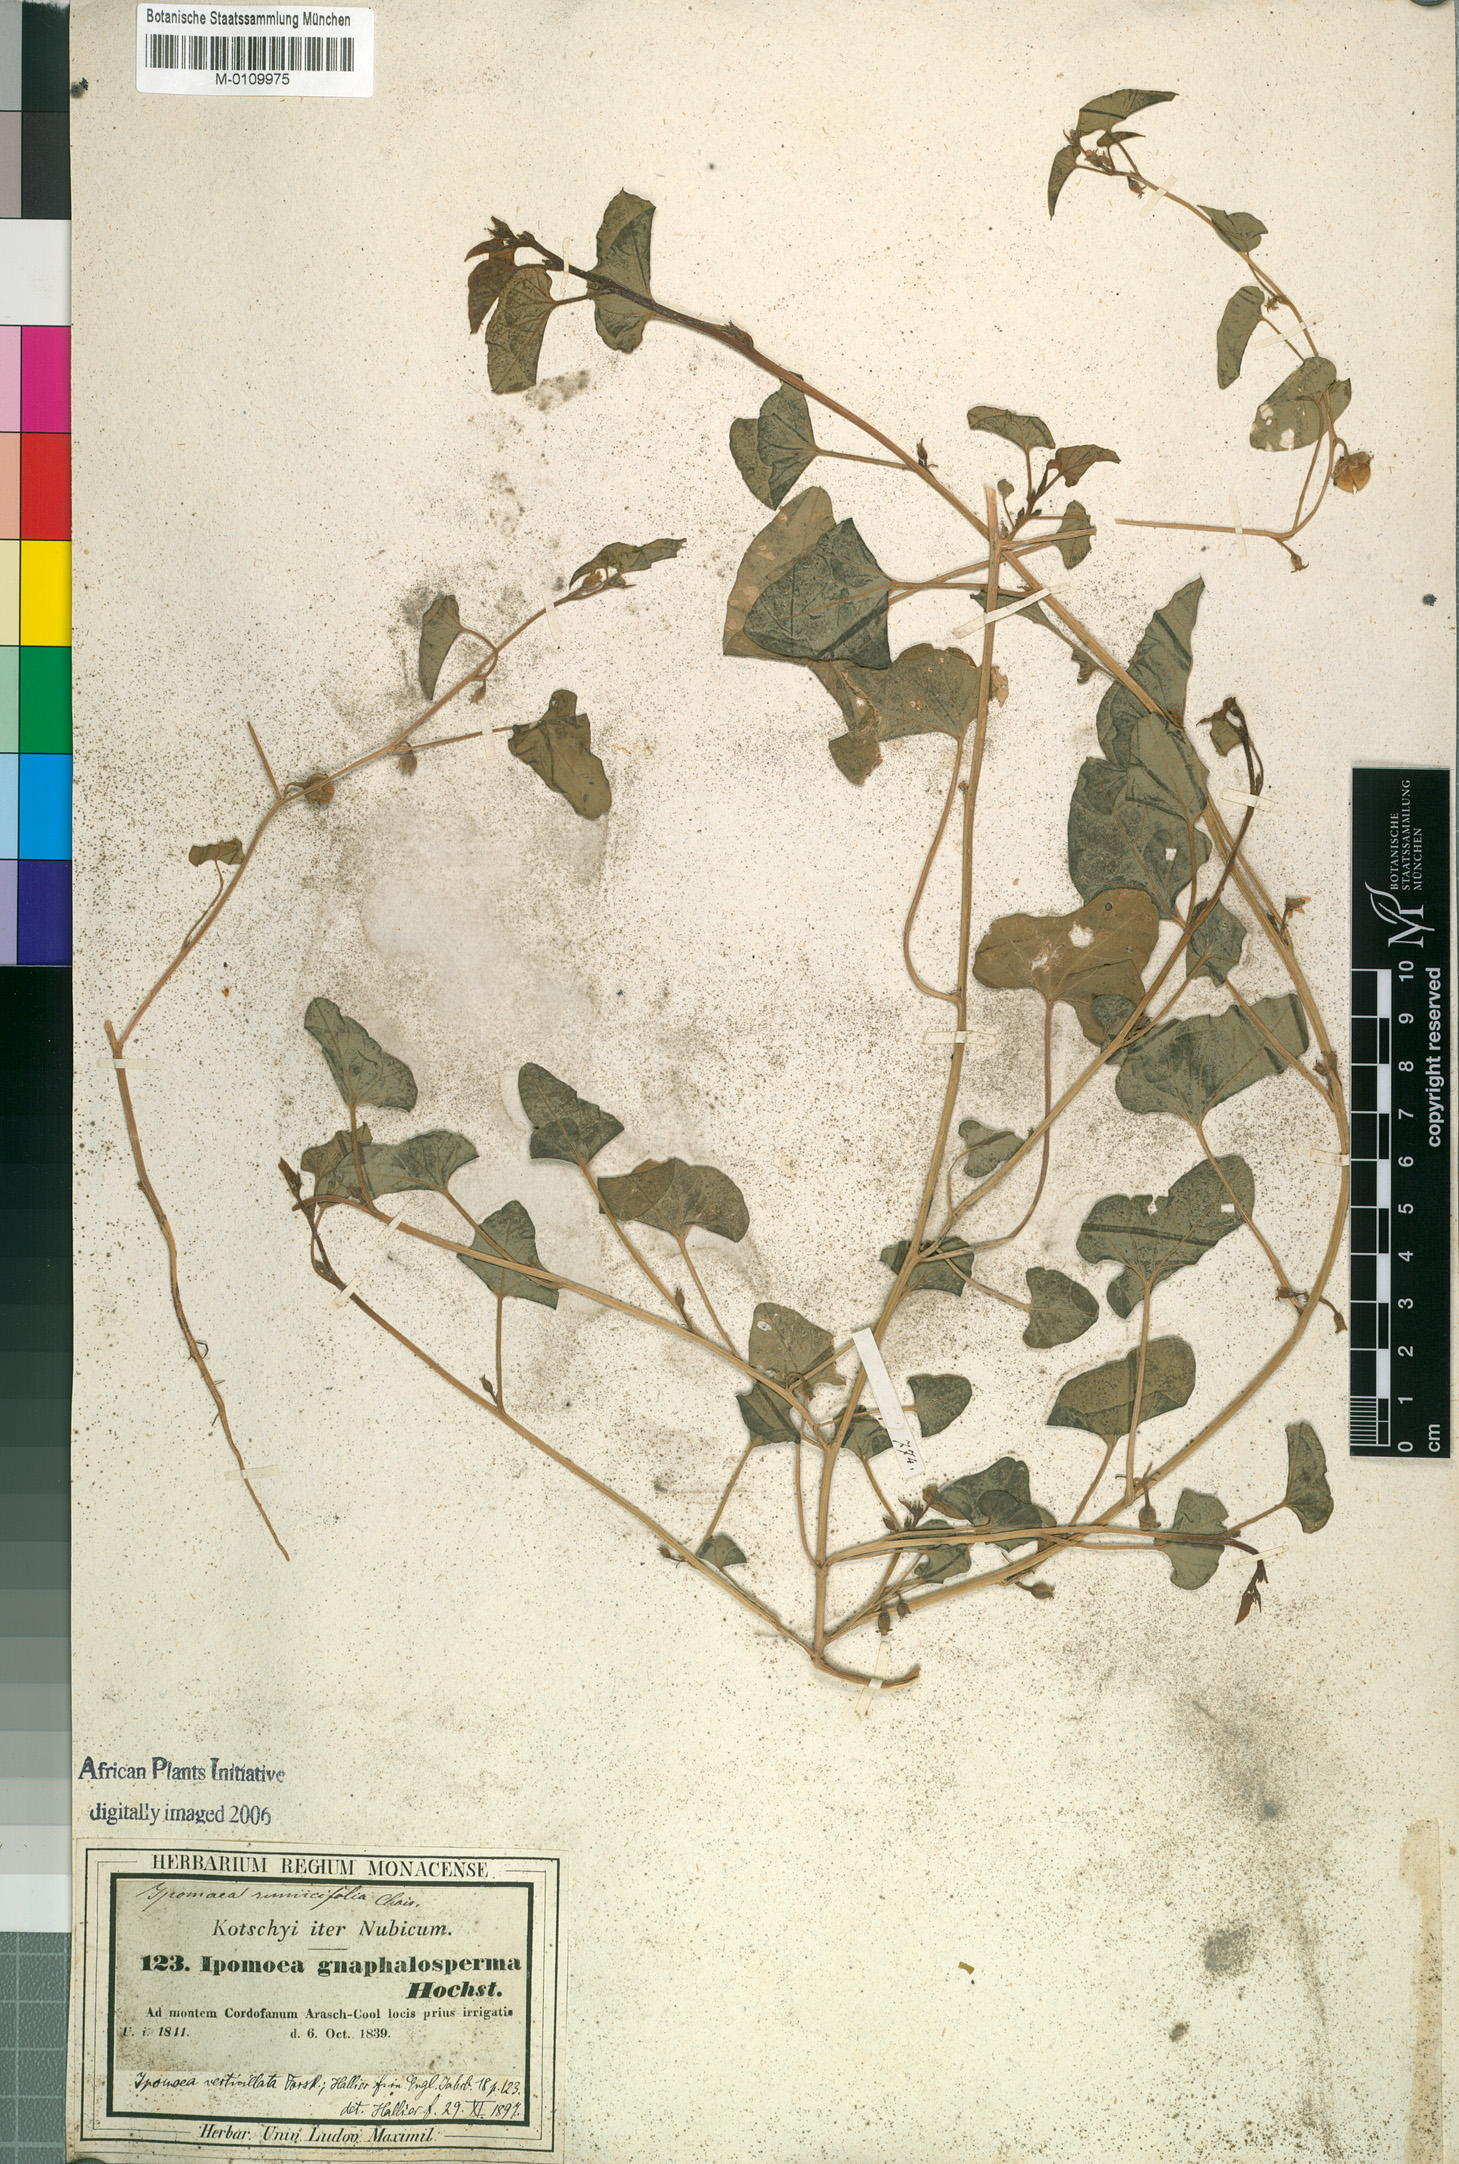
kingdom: Plantae
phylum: Tracheophyta
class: Magnoliopsida
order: Solanales
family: Convolvulaceae
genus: Ipomoea
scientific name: Ipomoea verticillata
